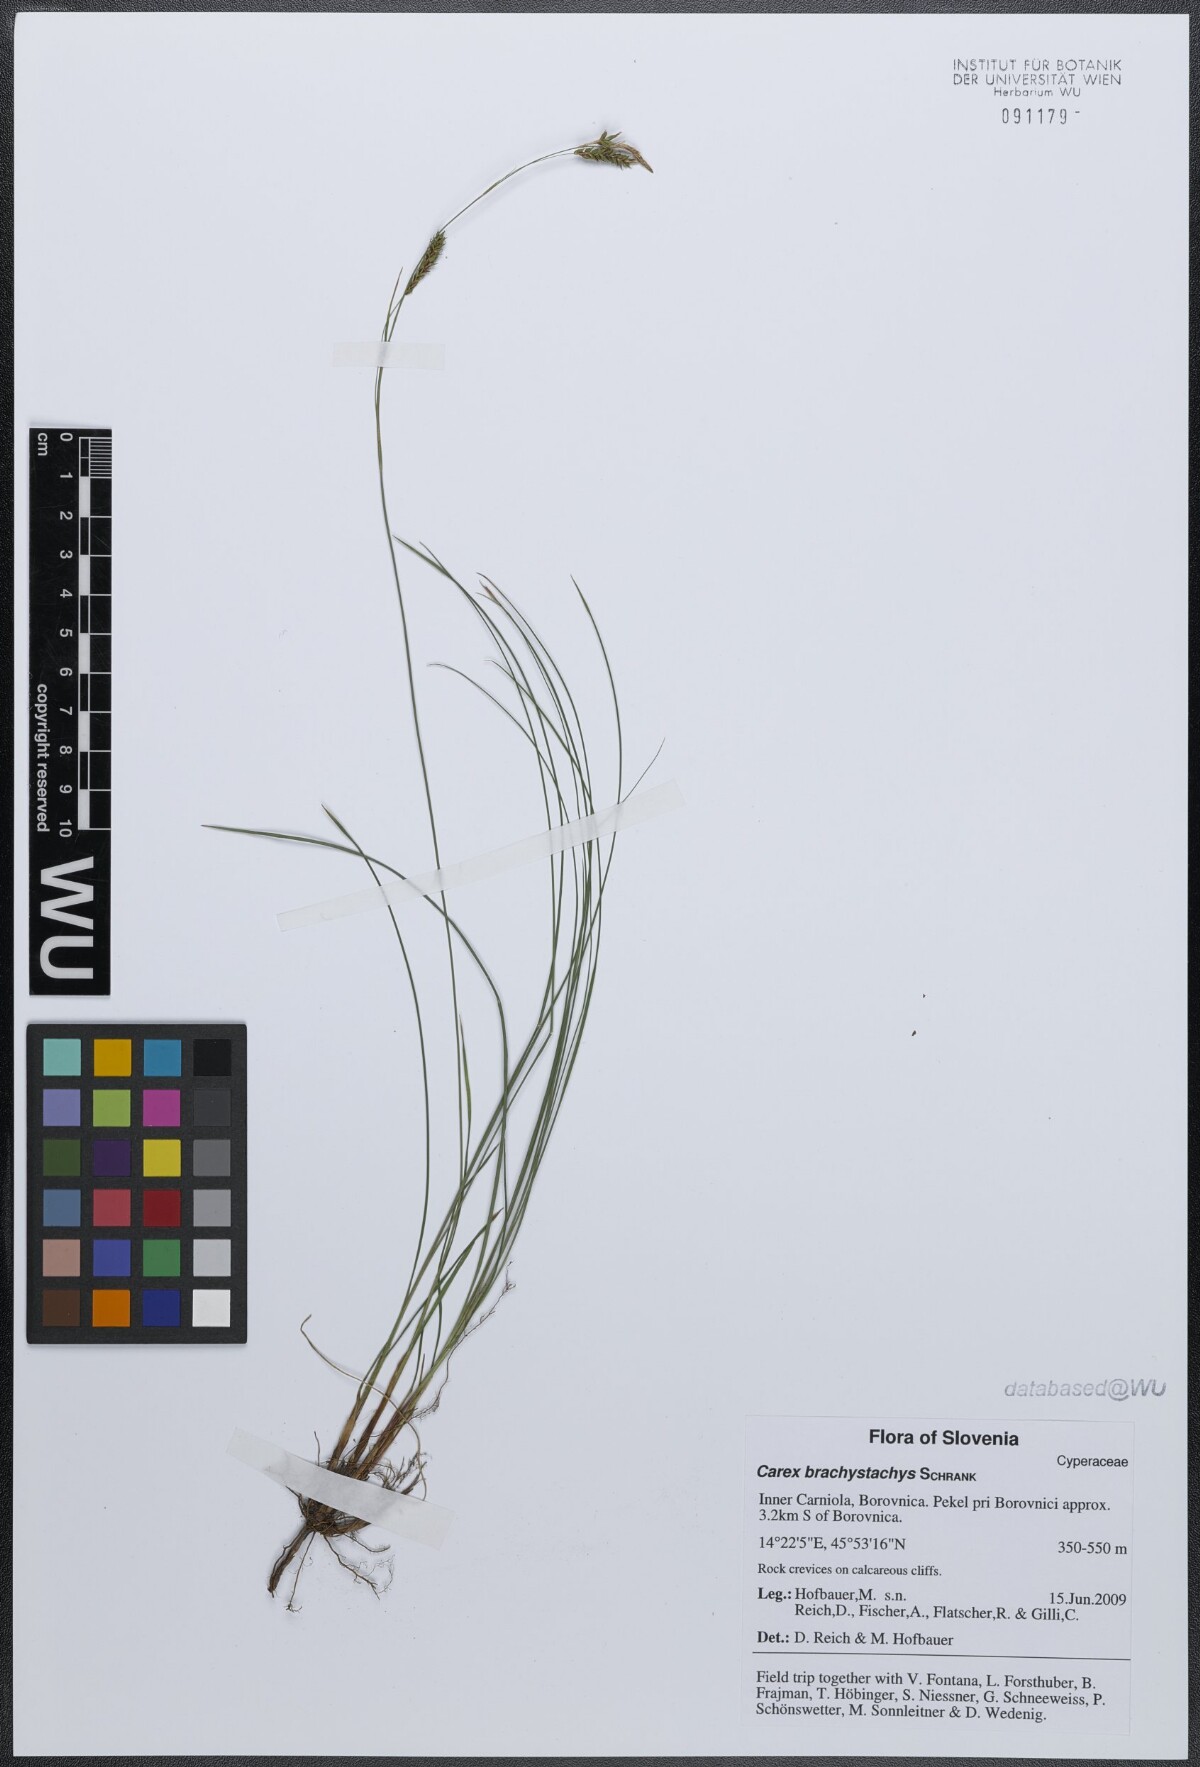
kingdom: Plantae
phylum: Tracheophyta
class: Liliopsida
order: Poales
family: Cyperaceae
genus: Carex
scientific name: Carex brachystachys
